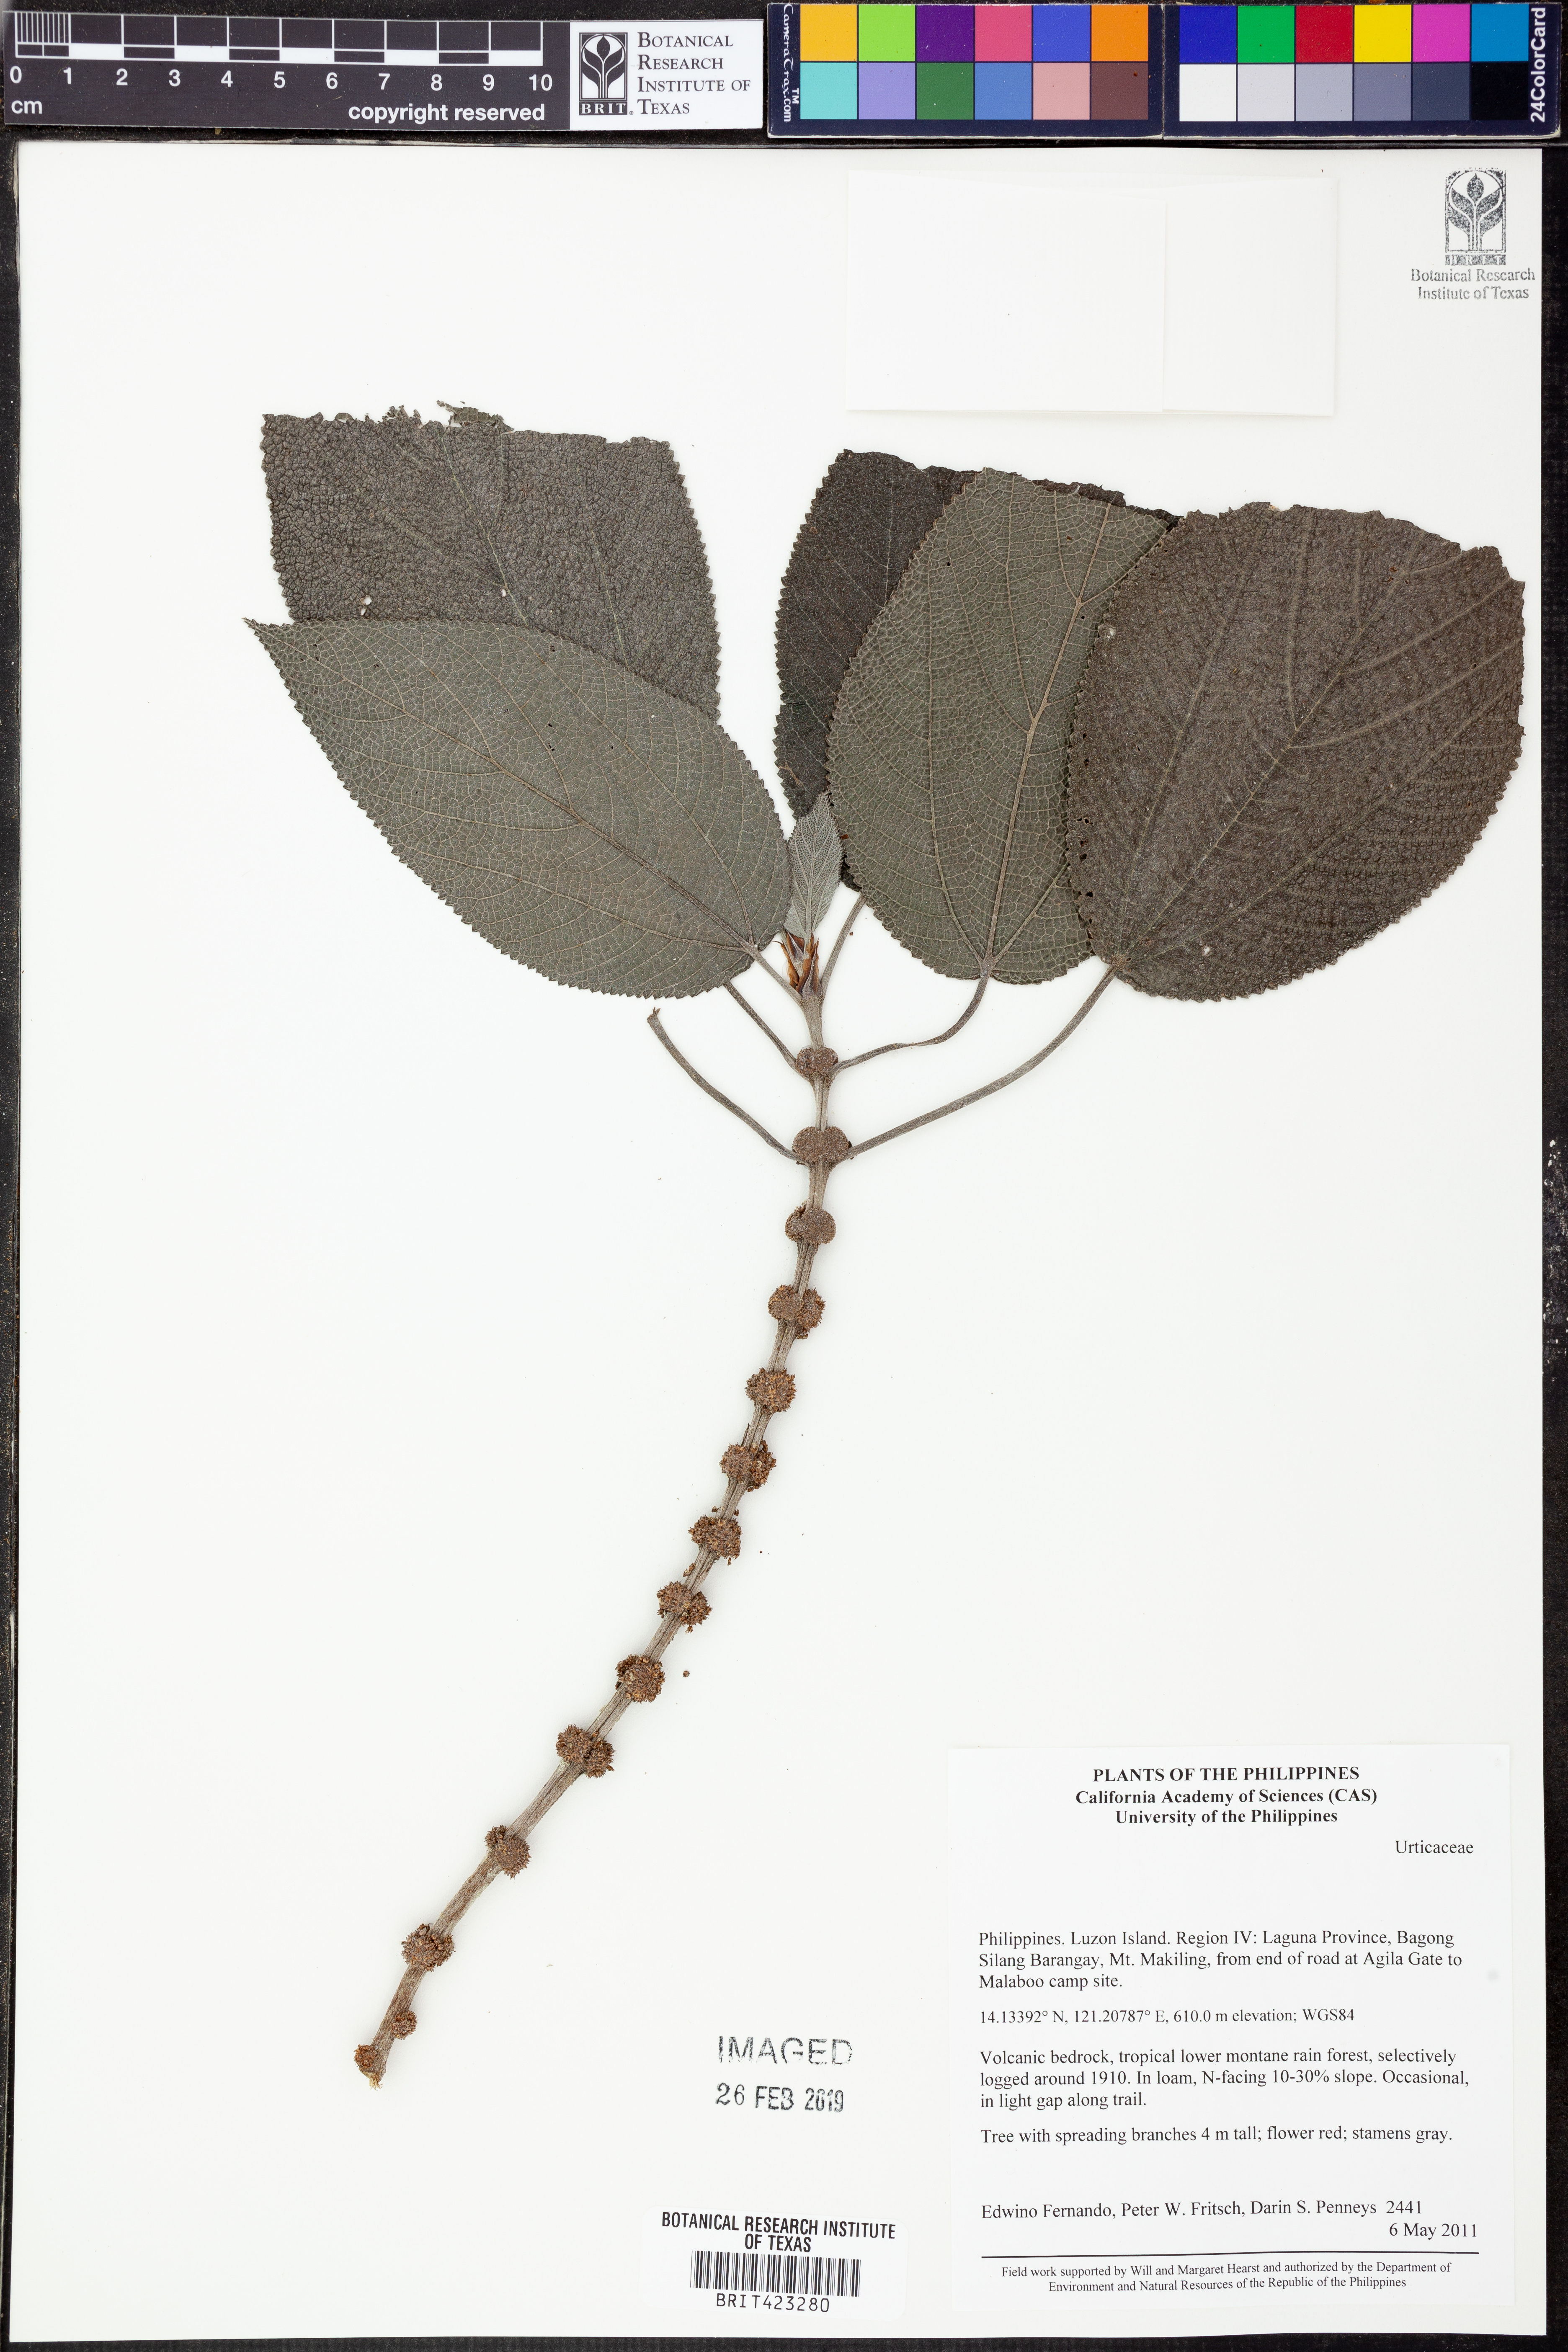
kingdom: Plantae
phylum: Tracheophyta
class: Magnoliopsida
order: Rosales
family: Urticaceae
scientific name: Urticaceae
